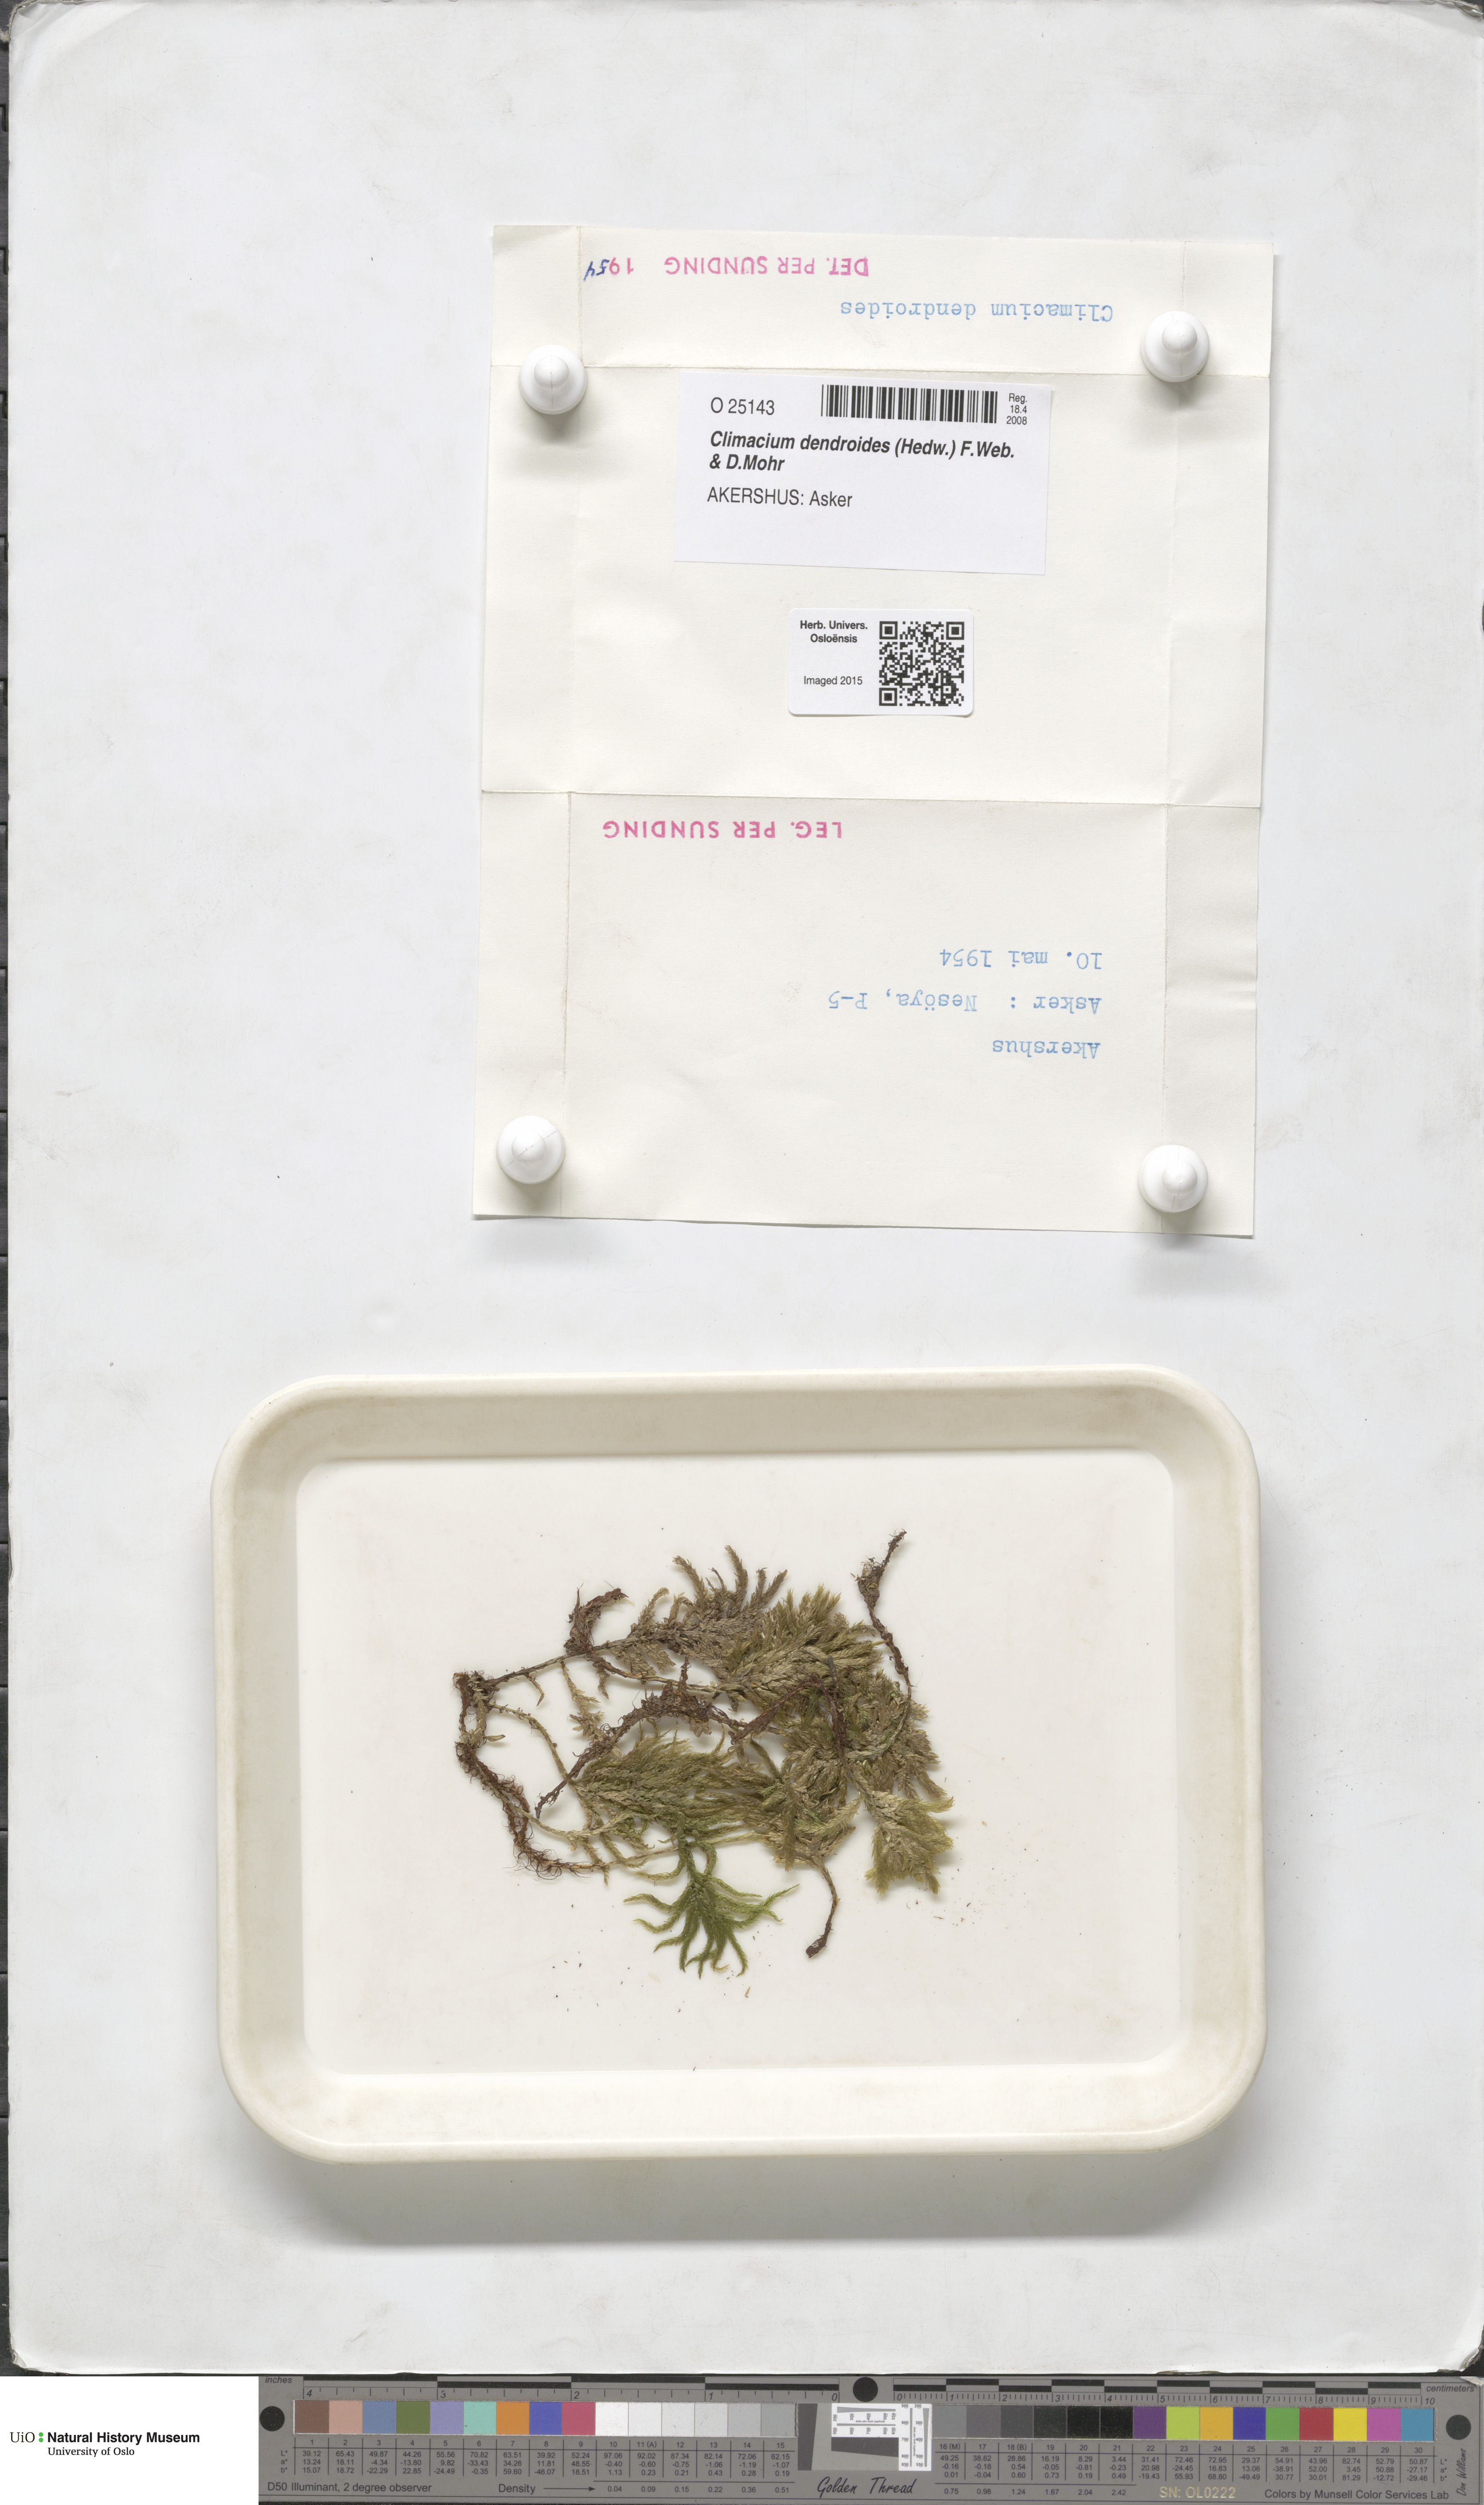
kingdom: Plantae
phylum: Bryophyta
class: Bryopsida
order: Hypnales
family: Climaciaceae
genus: Climacium
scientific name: Climacium dendroides
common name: Northern tree moss
